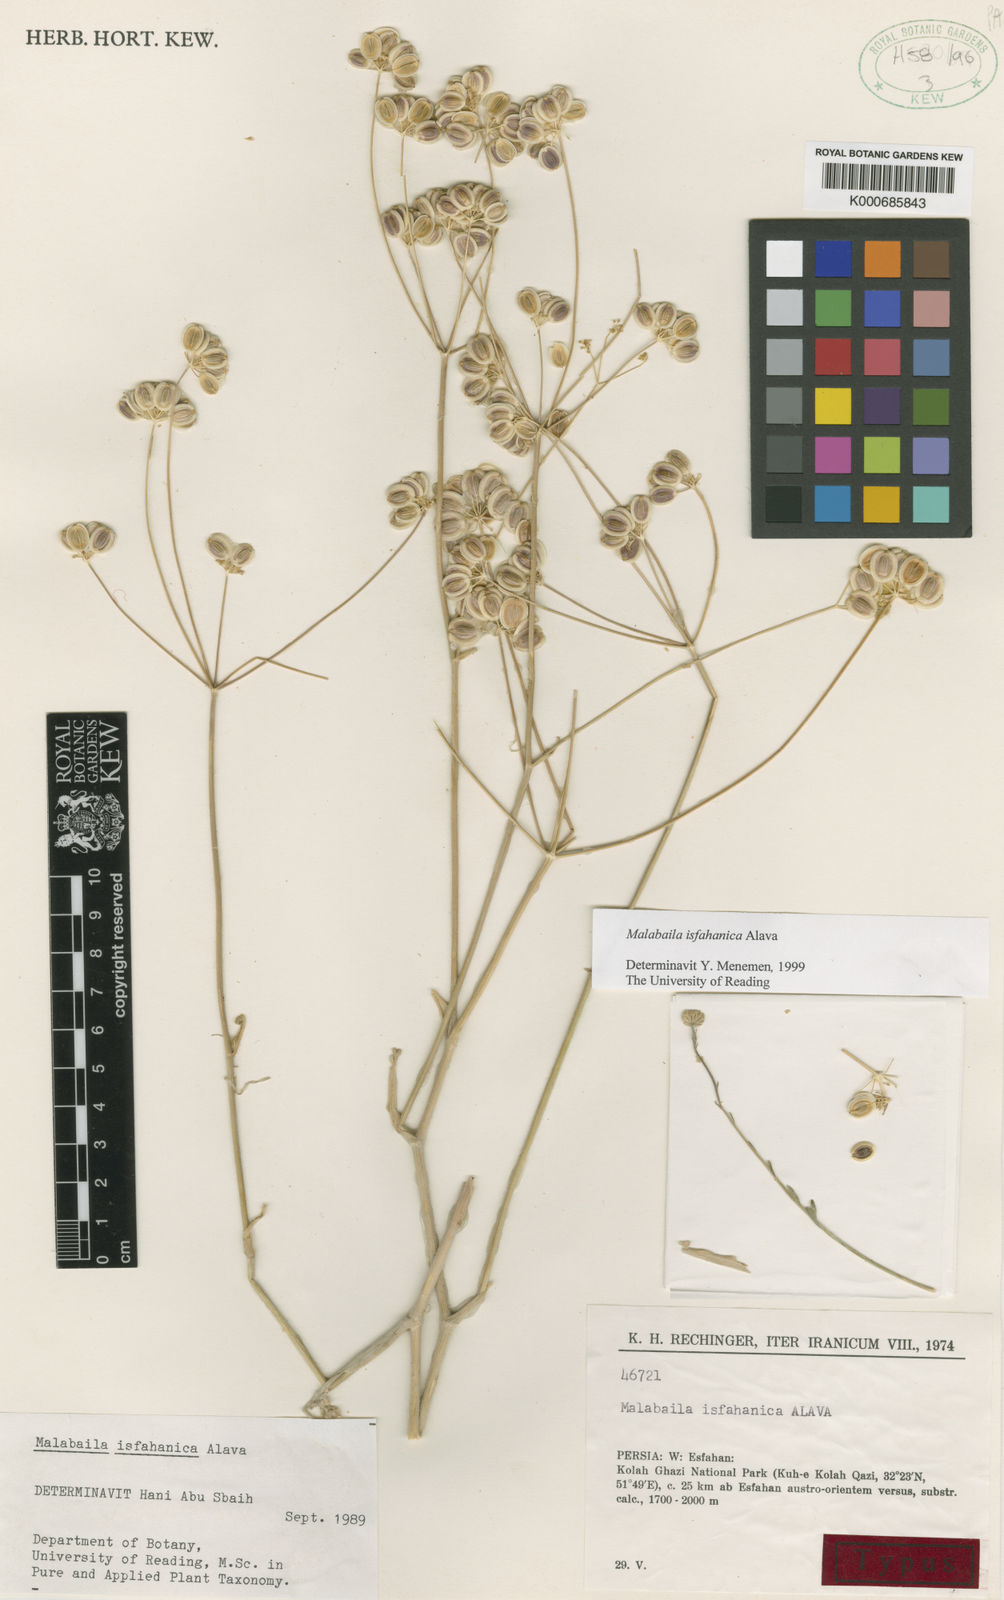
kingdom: Plantae
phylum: Tracheophyta
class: Magnoliopsida
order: Apiales
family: Apiaceae
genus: Pastinaca
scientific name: Pastinaca
